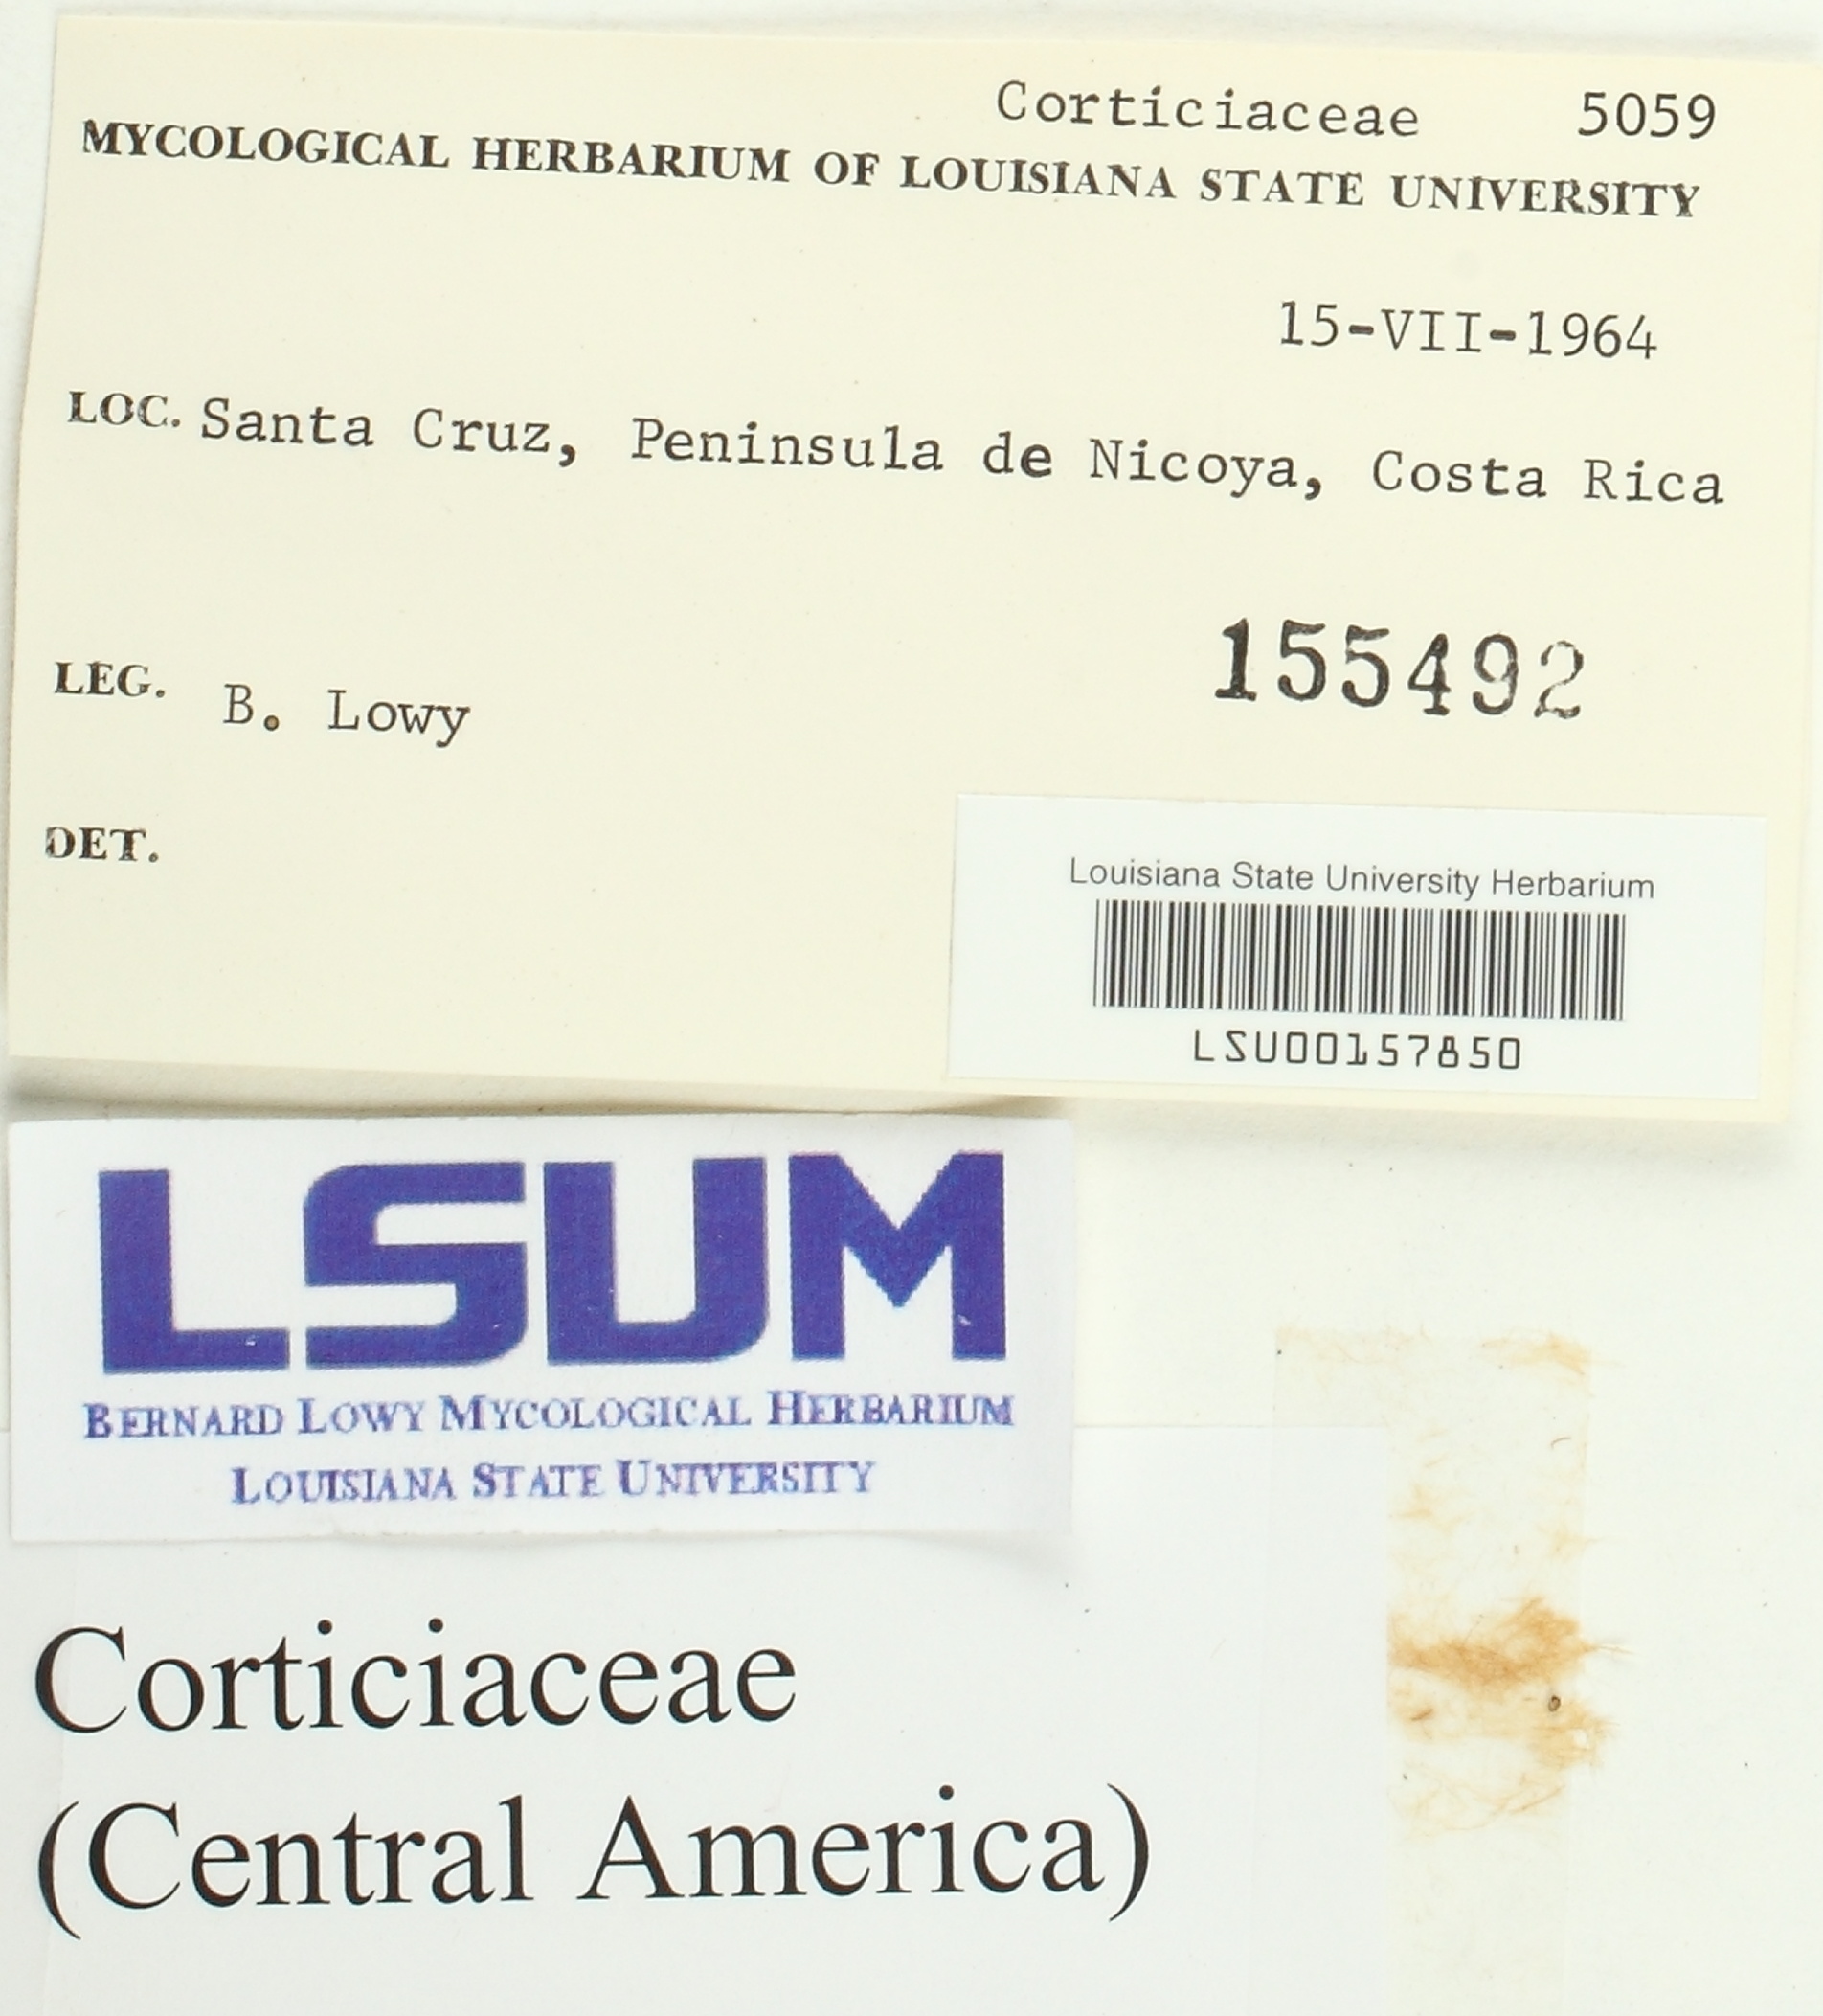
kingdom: Fungi
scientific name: Fungi
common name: Fungi
